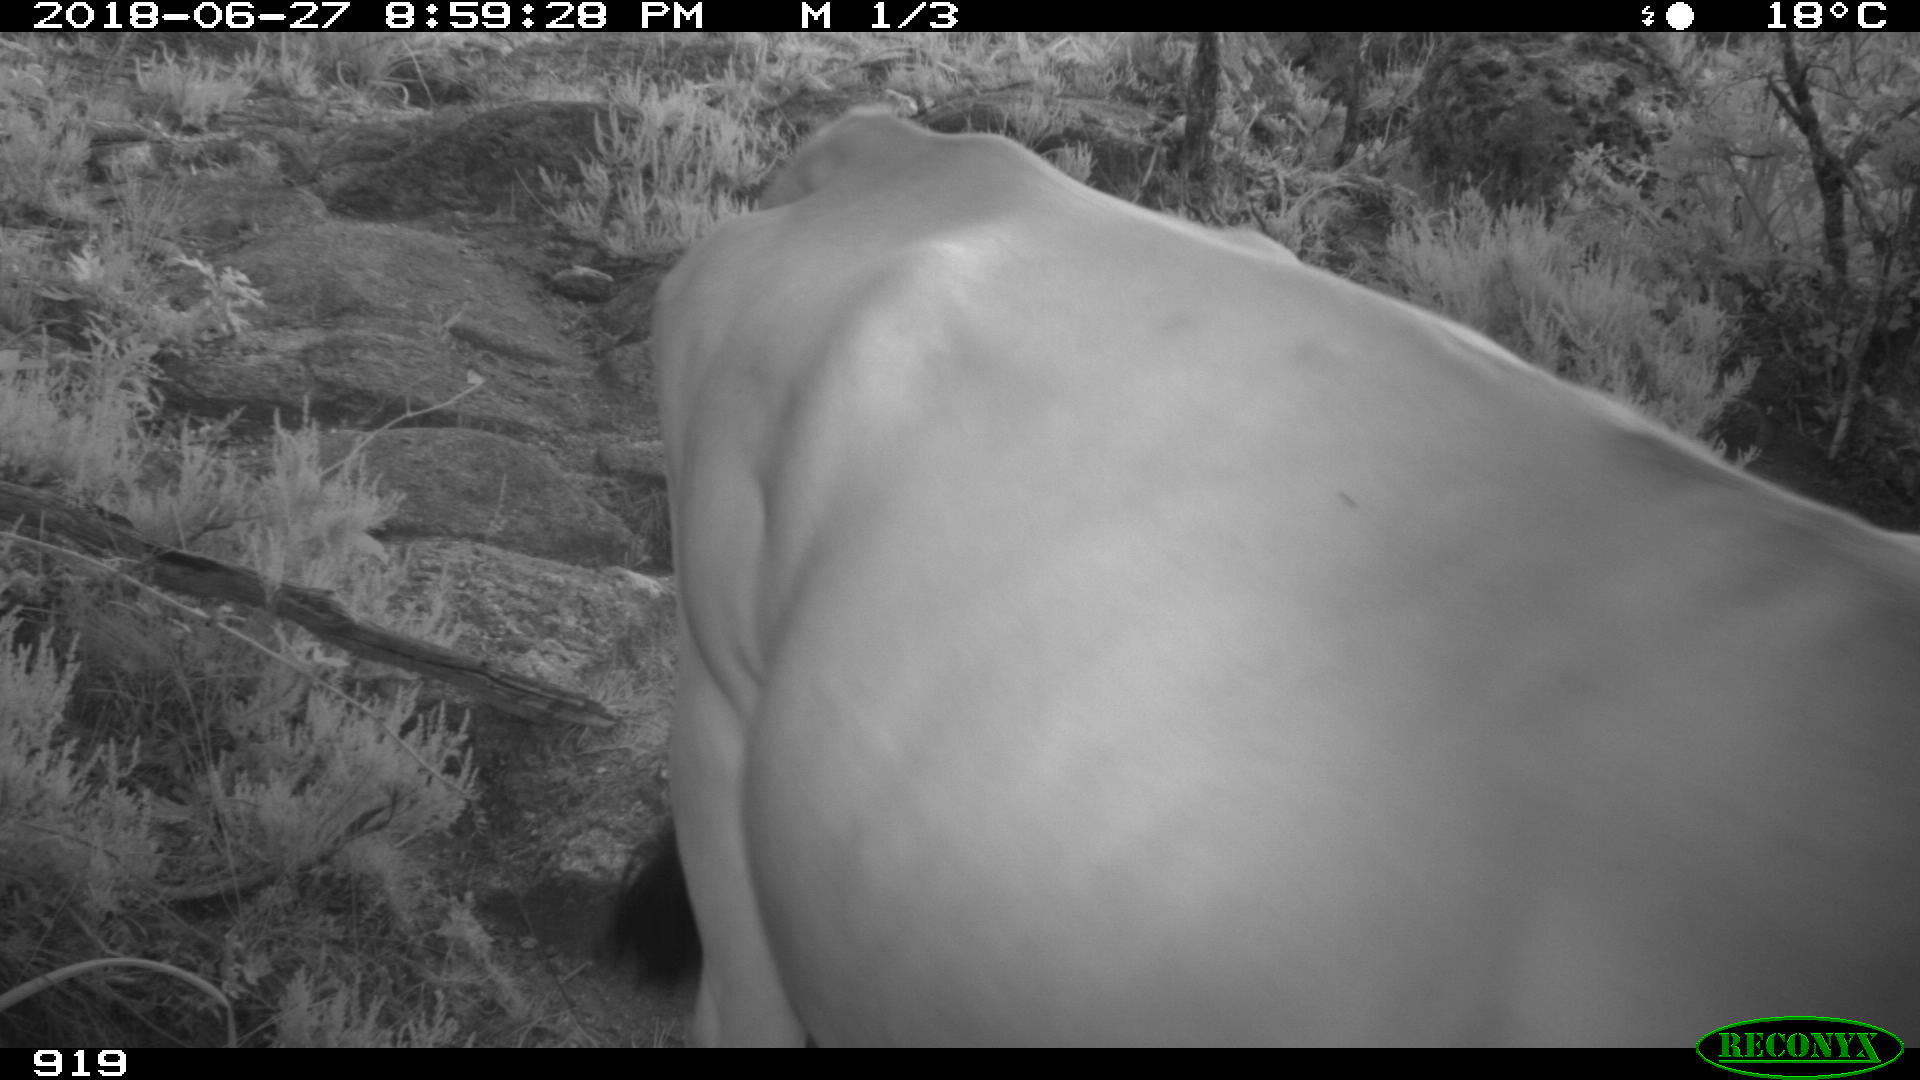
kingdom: Animalia
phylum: Chordata
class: Mammalia
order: Artiodactyla
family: Bovidae
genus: Bos
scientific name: Bos taurus
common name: Domesticated cattle
